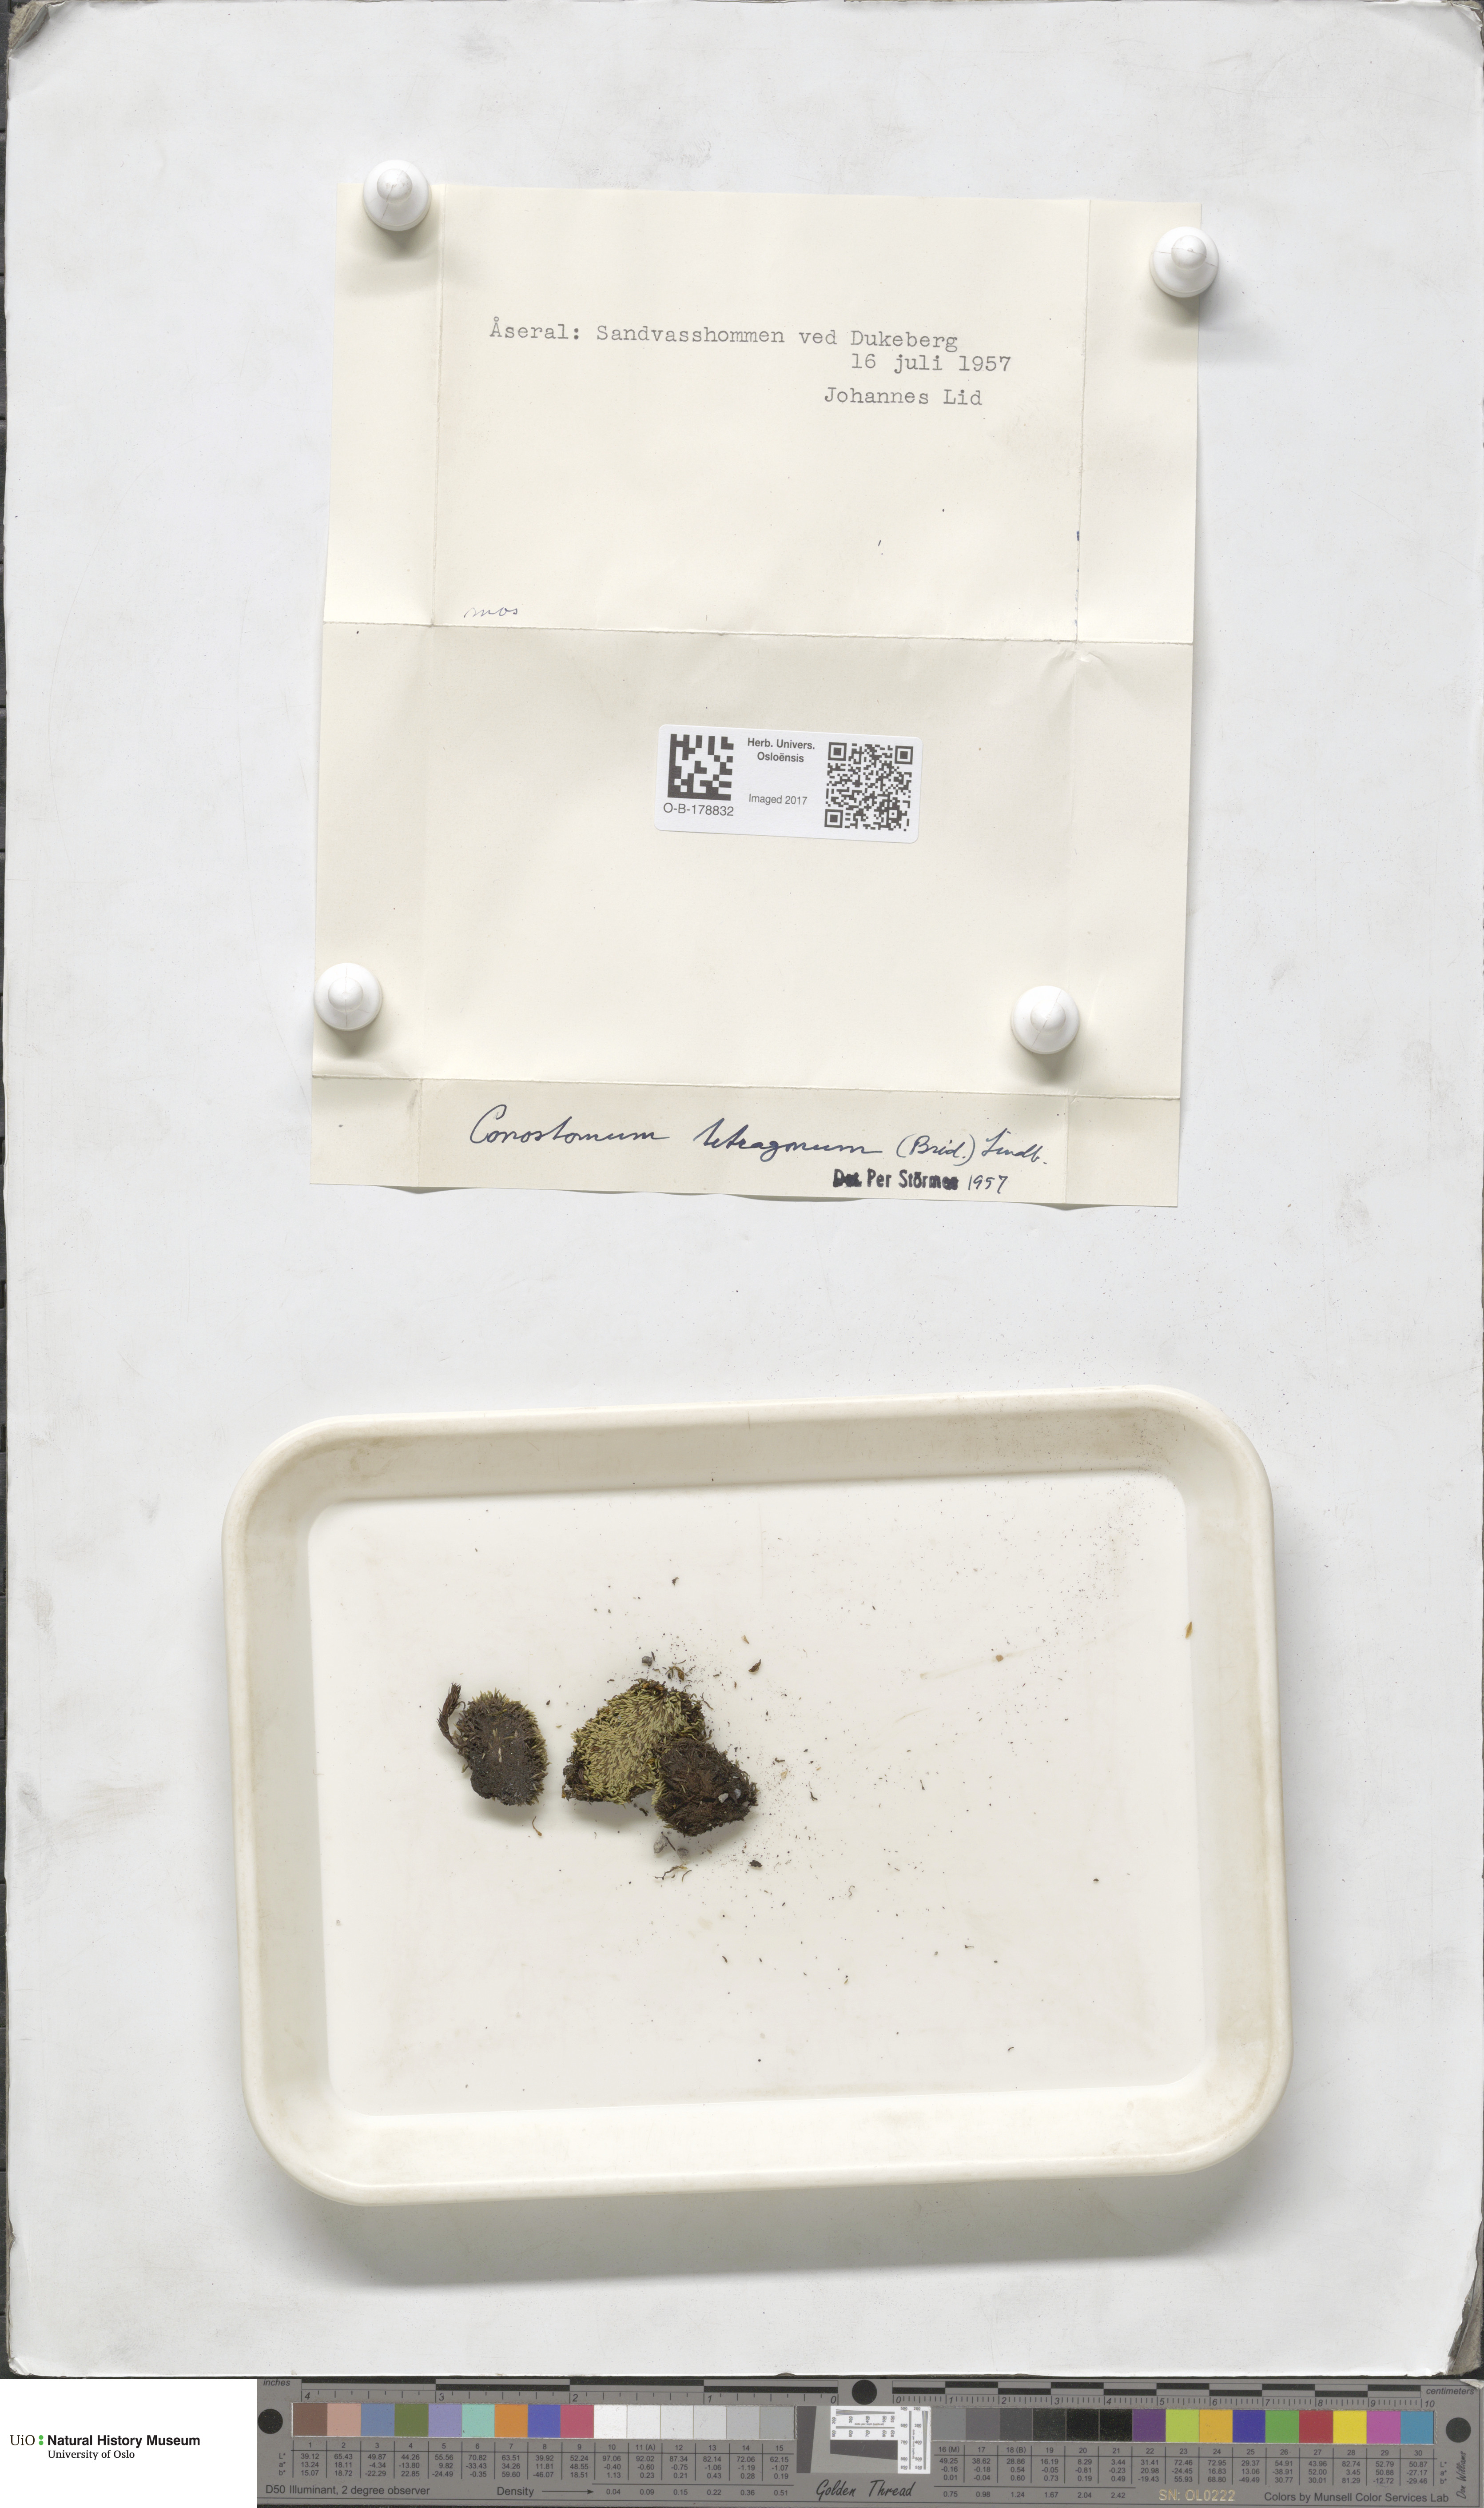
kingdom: Plantae
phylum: Bryophyta
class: Bryopsida
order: Bartramiales
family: Bartramiaceae
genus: Conostomum
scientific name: Conostomum tetragonum
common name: Helmet moss
